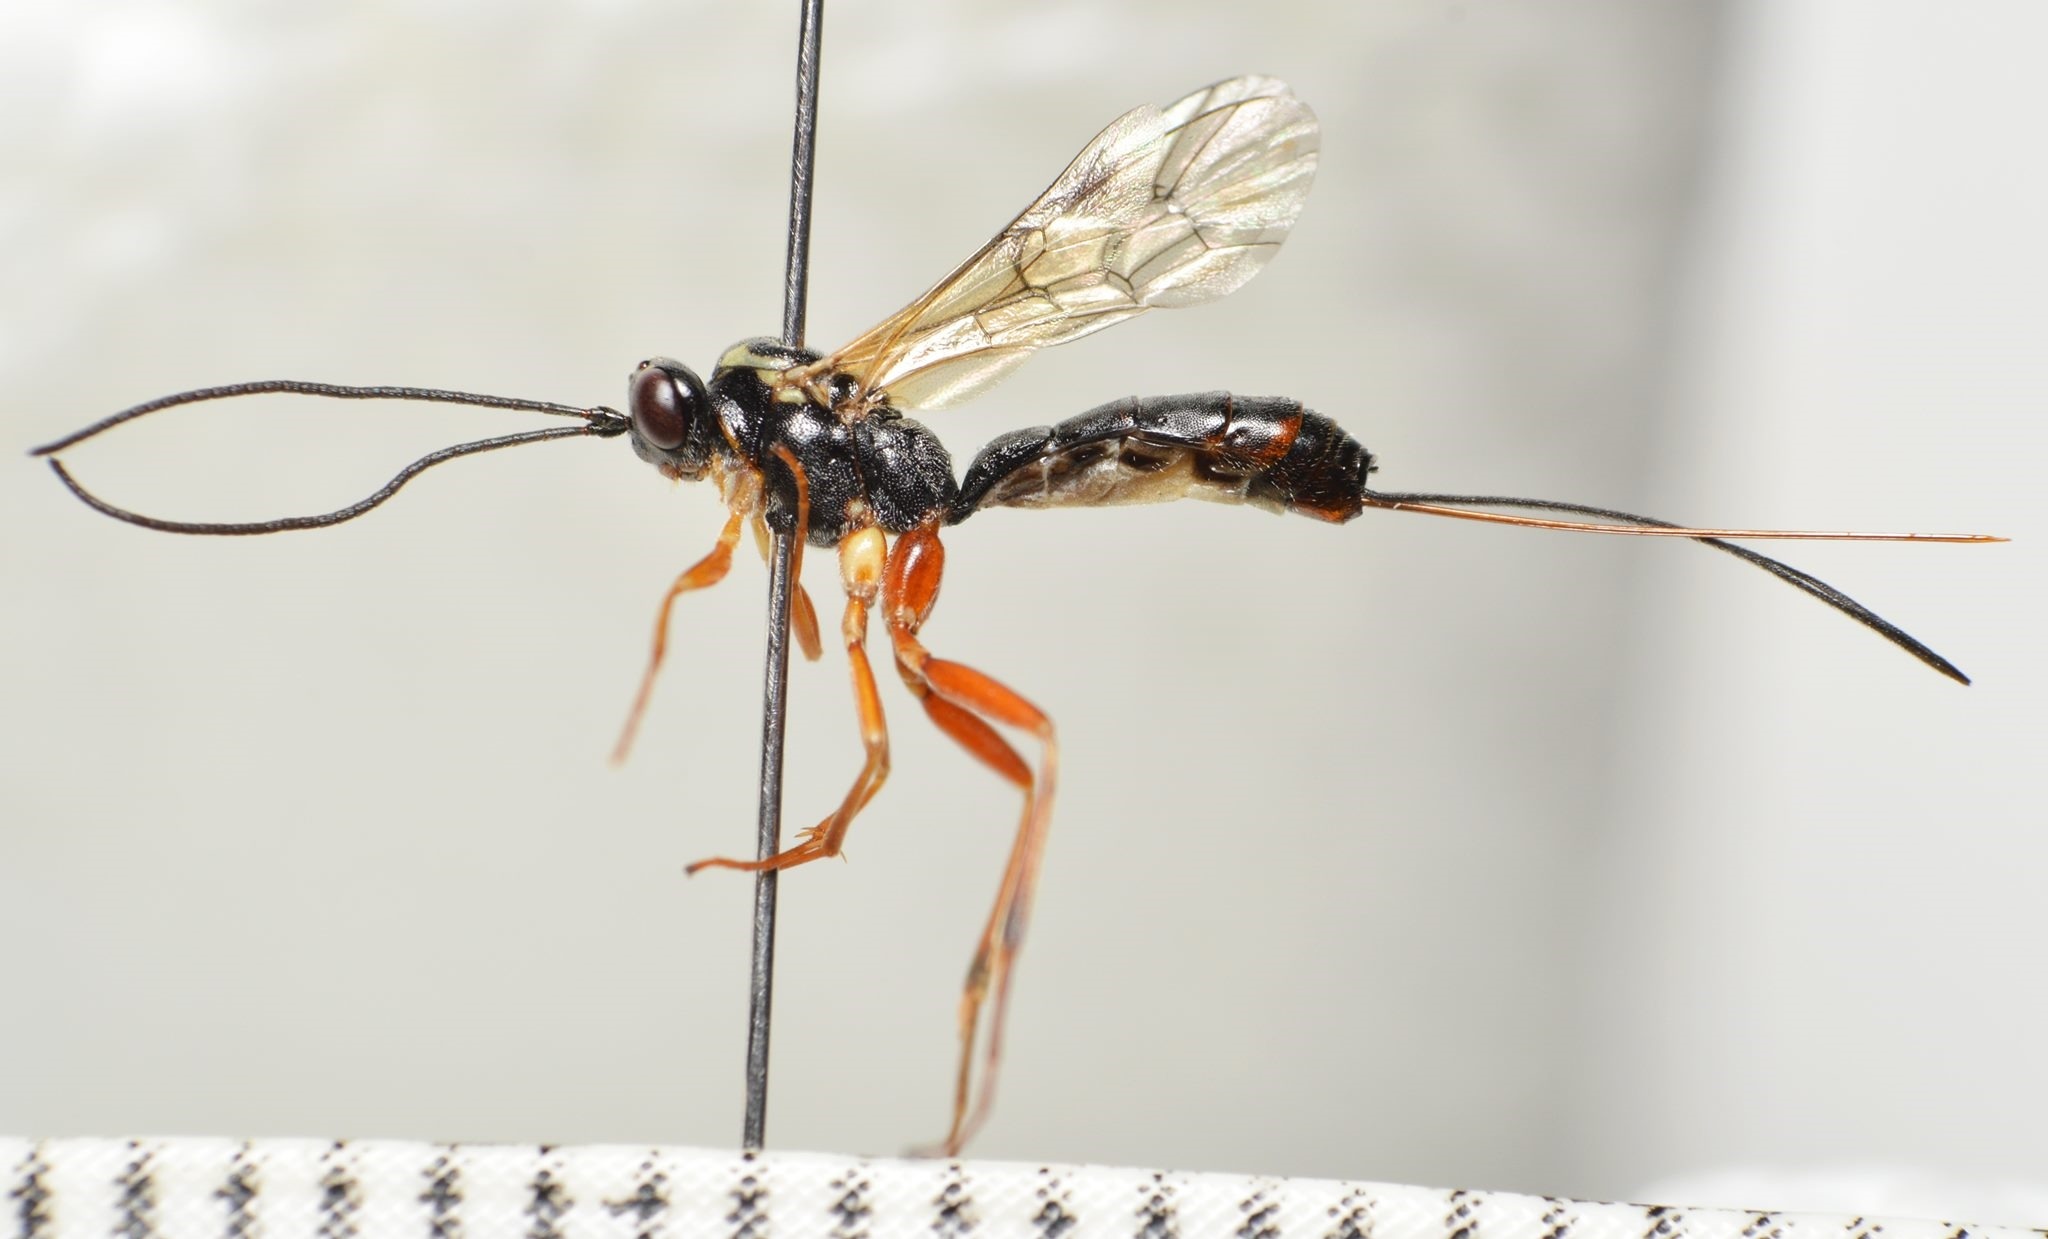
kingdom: Animalia
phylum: Arthropoda
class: Insecta
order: Hymenoptera
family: Ichneumonidae
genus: Lissonota
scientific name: Lissonota deversor
